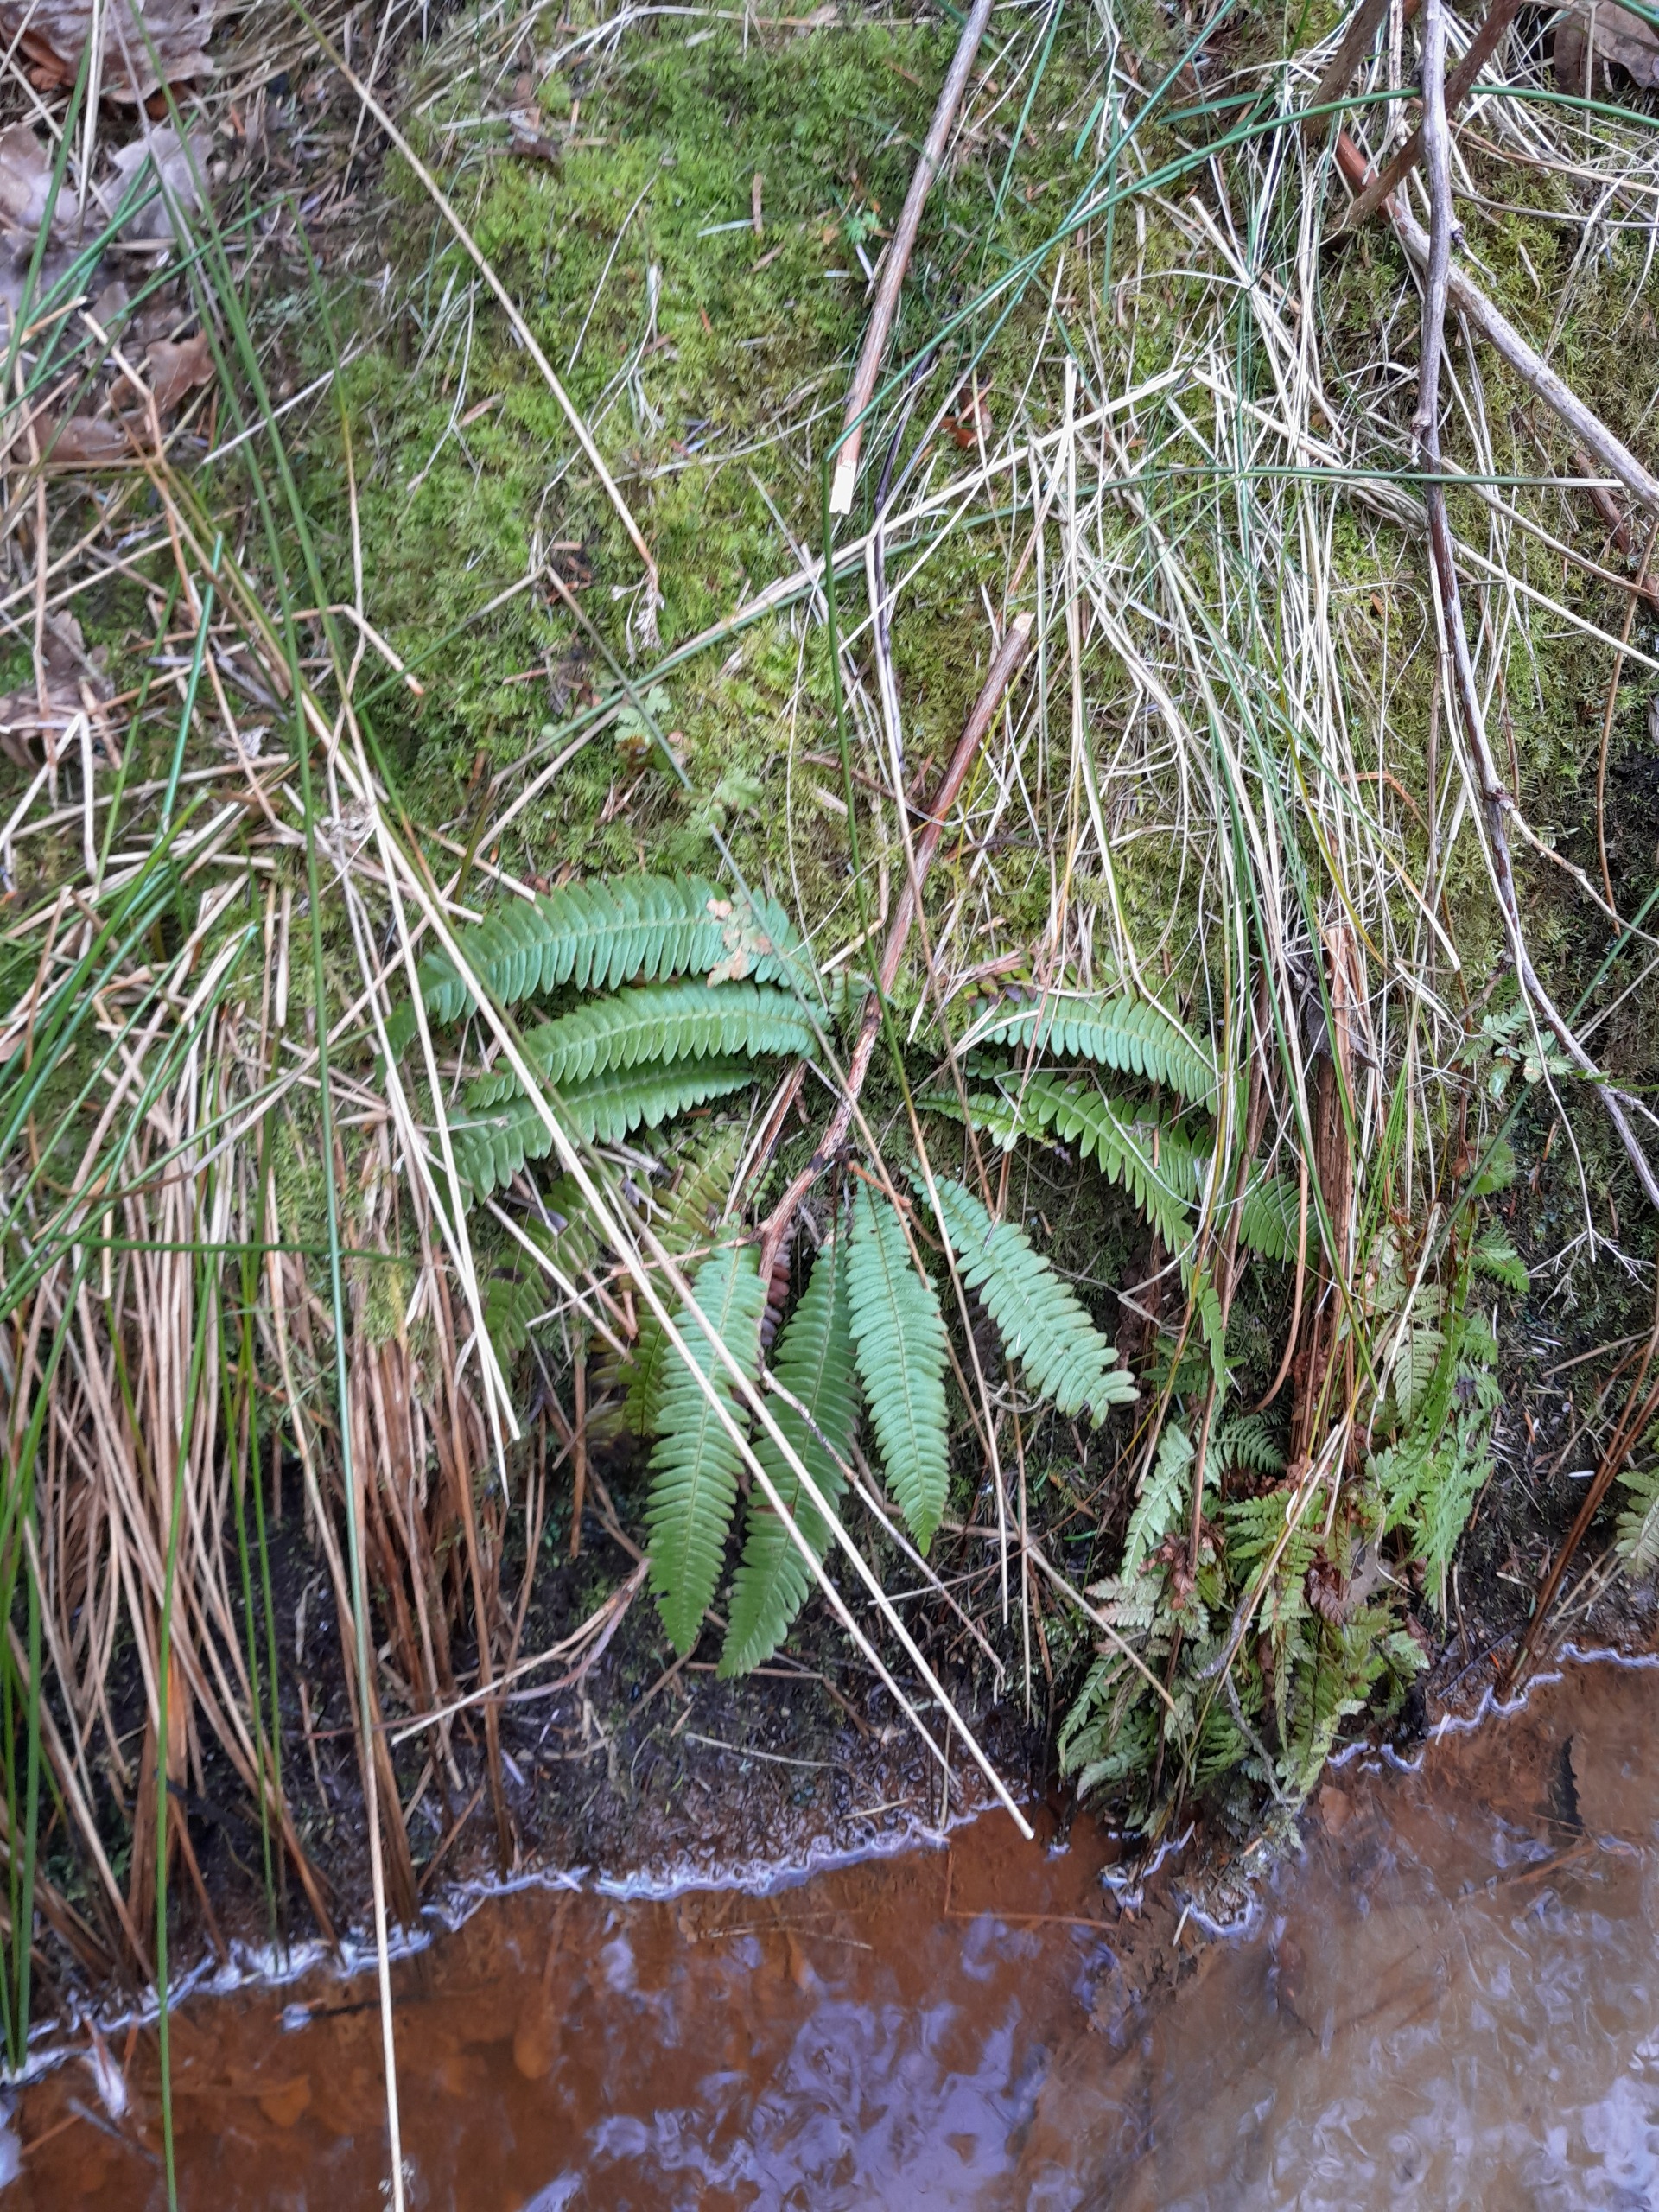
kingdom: Plantae
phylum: Tracheophyta
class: Polypodiopsida
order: Polypodiales
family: Blechnaceae
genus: Struthiopteris
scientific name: Struthiopteris spicant
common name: Kambregne
